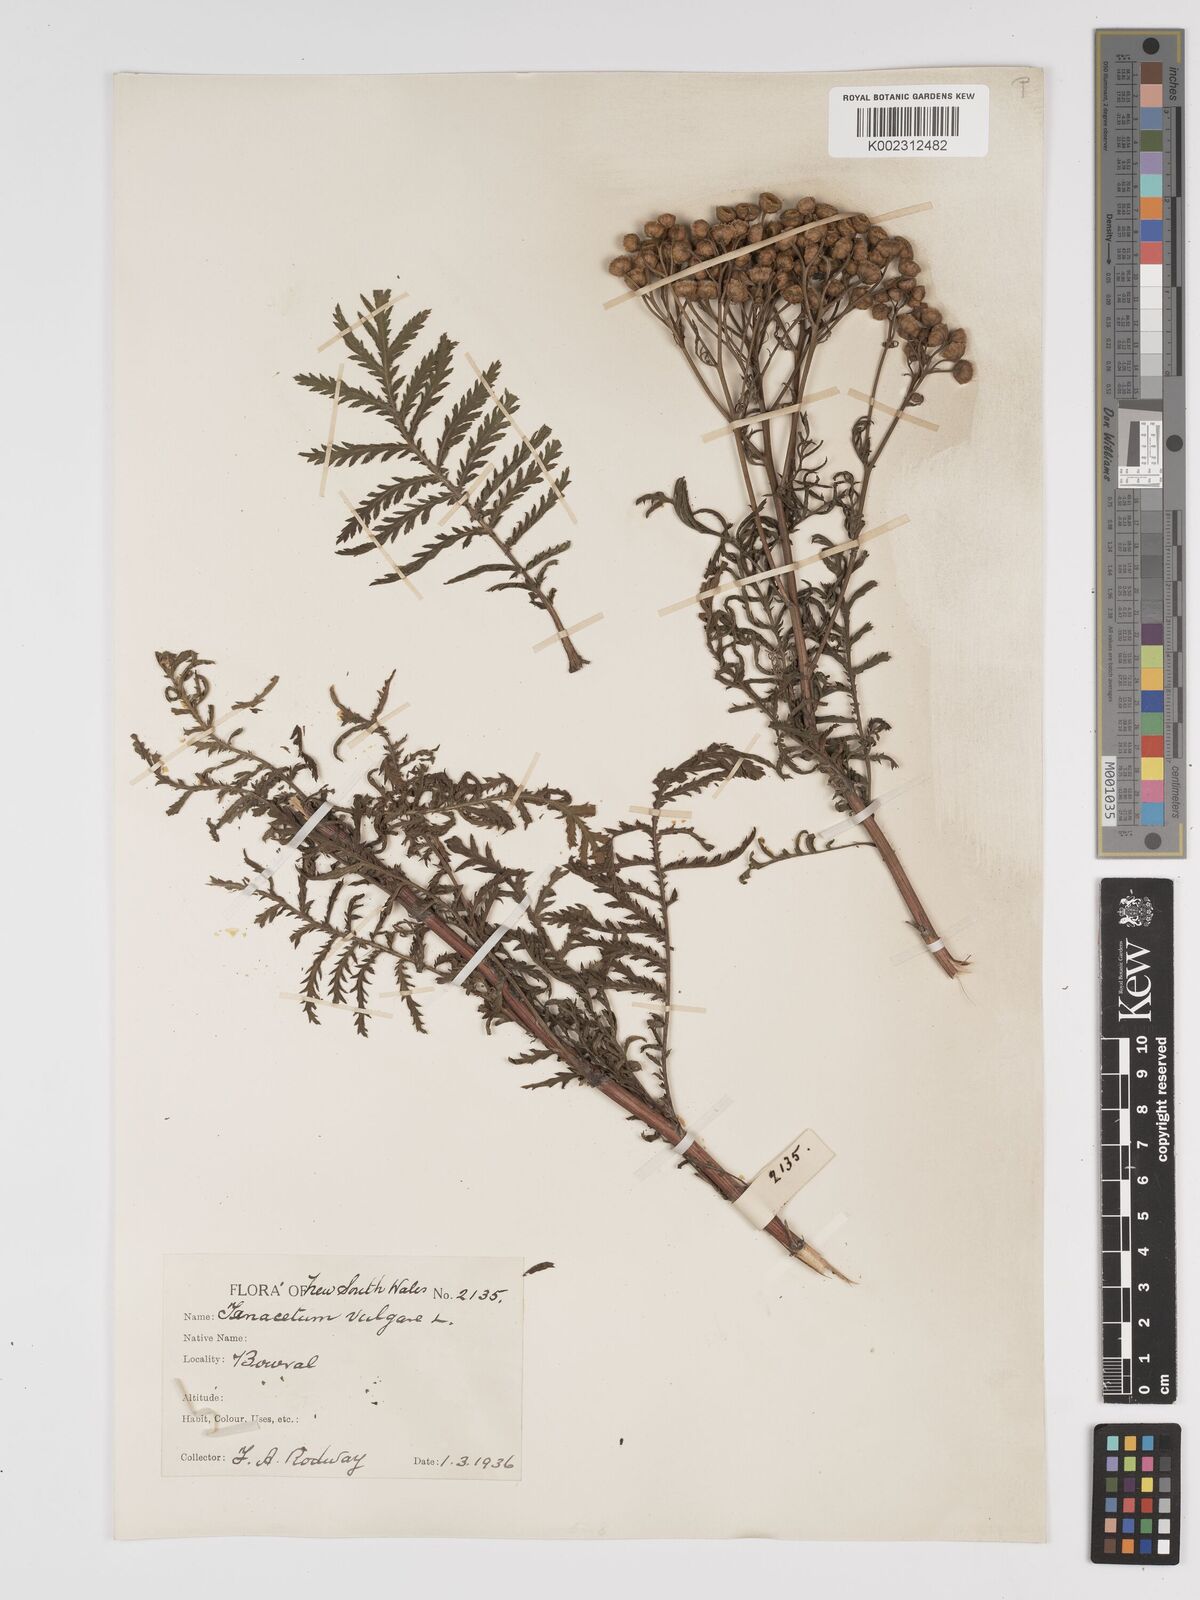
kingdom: Plantae
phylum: Tracheophyta
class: Magnoliopsida
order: Asterales
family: Asteraceae
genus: Tanacetum
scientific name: Tanacetum vulgare
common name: Common tansy
